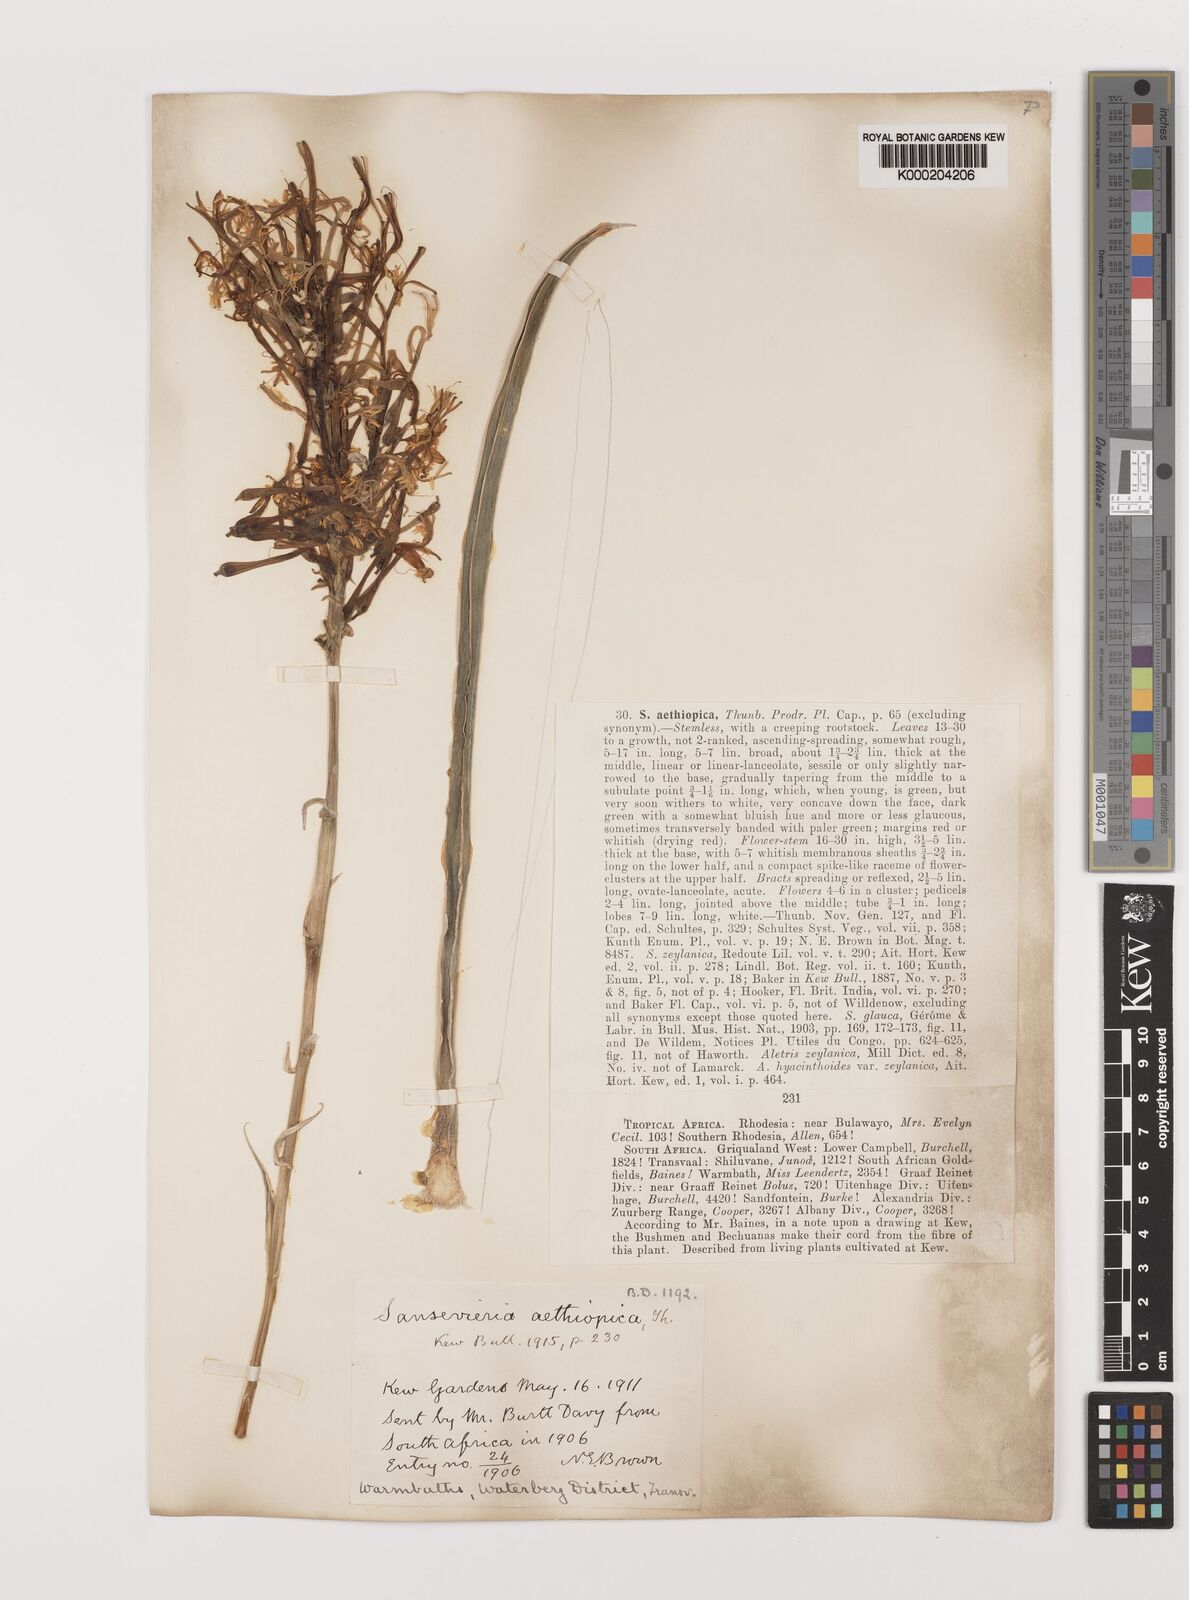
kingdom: Plantae
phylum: Tracheophyta
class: Liliopsida
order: Asparagales
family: Asparagaceae
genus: Dracaena
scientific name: Dracaena aethiopica
